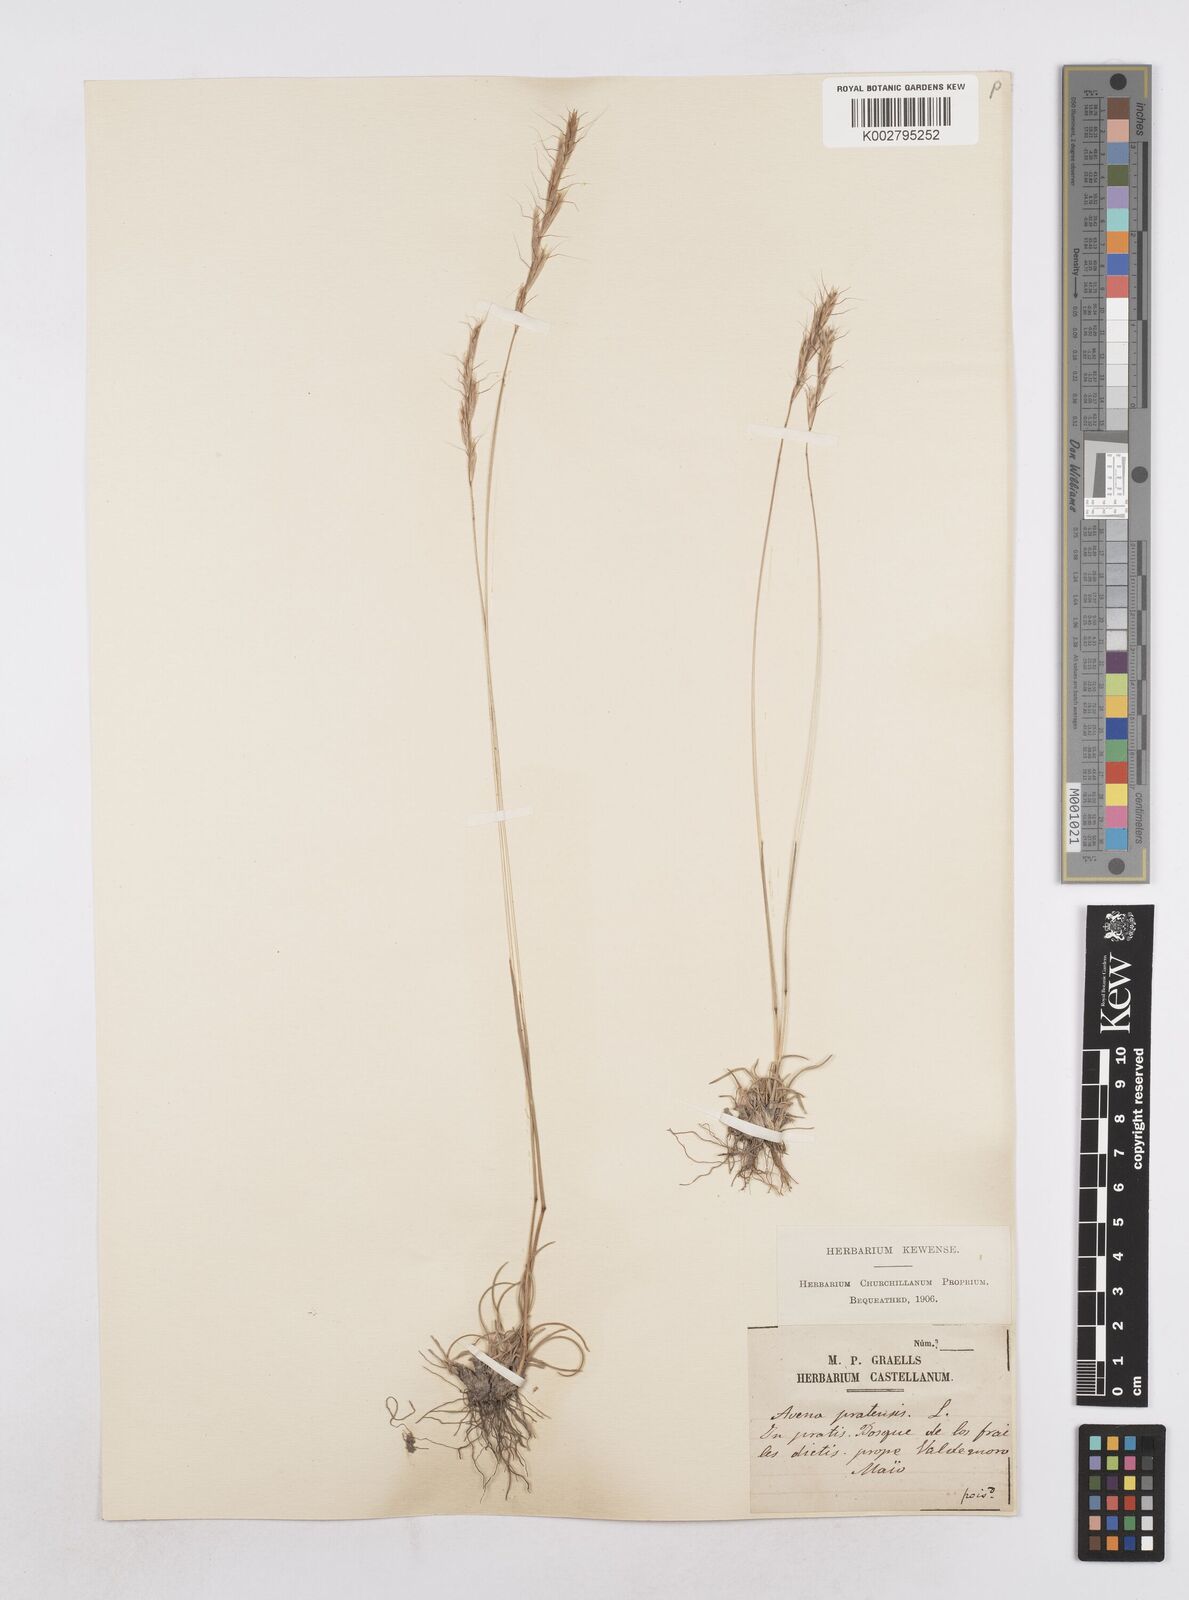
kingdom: Plantae
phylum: Tracheophyta
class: Liliopsida
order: Poales
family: Poaceae
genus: Helictochloa
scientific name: Helictochloa bromoides
